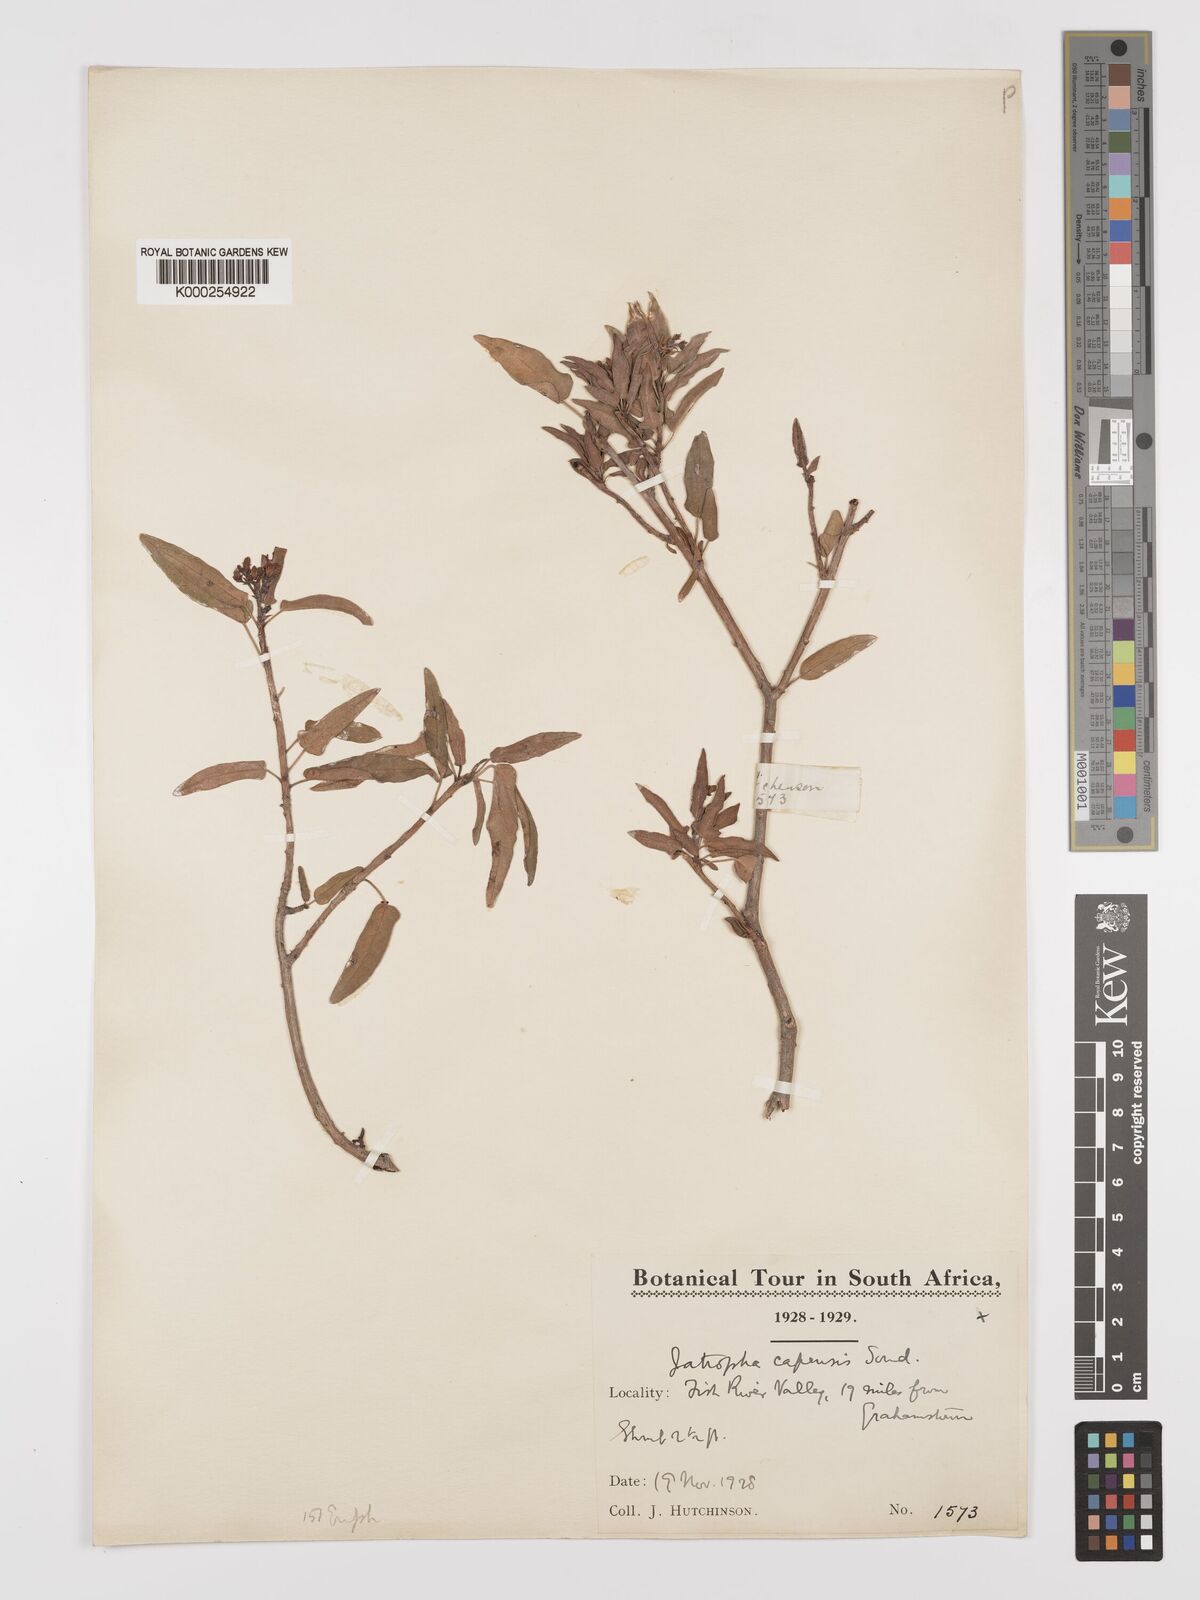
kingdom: Plantae
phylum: Tracheophyta
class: Magnoliopsida
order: Malpighiales
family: Euphorbiaceae
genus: Jatropha
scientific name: Jatropha capensis
